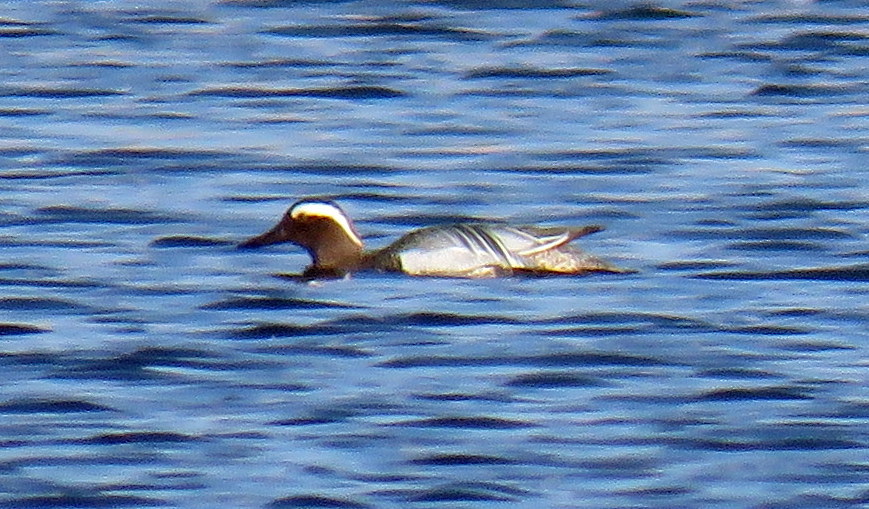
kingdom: Animalia
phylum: Chordata
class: Aves
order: Anseriformes
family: Anatidae
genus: Spatula
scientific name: Spatula querquedula
